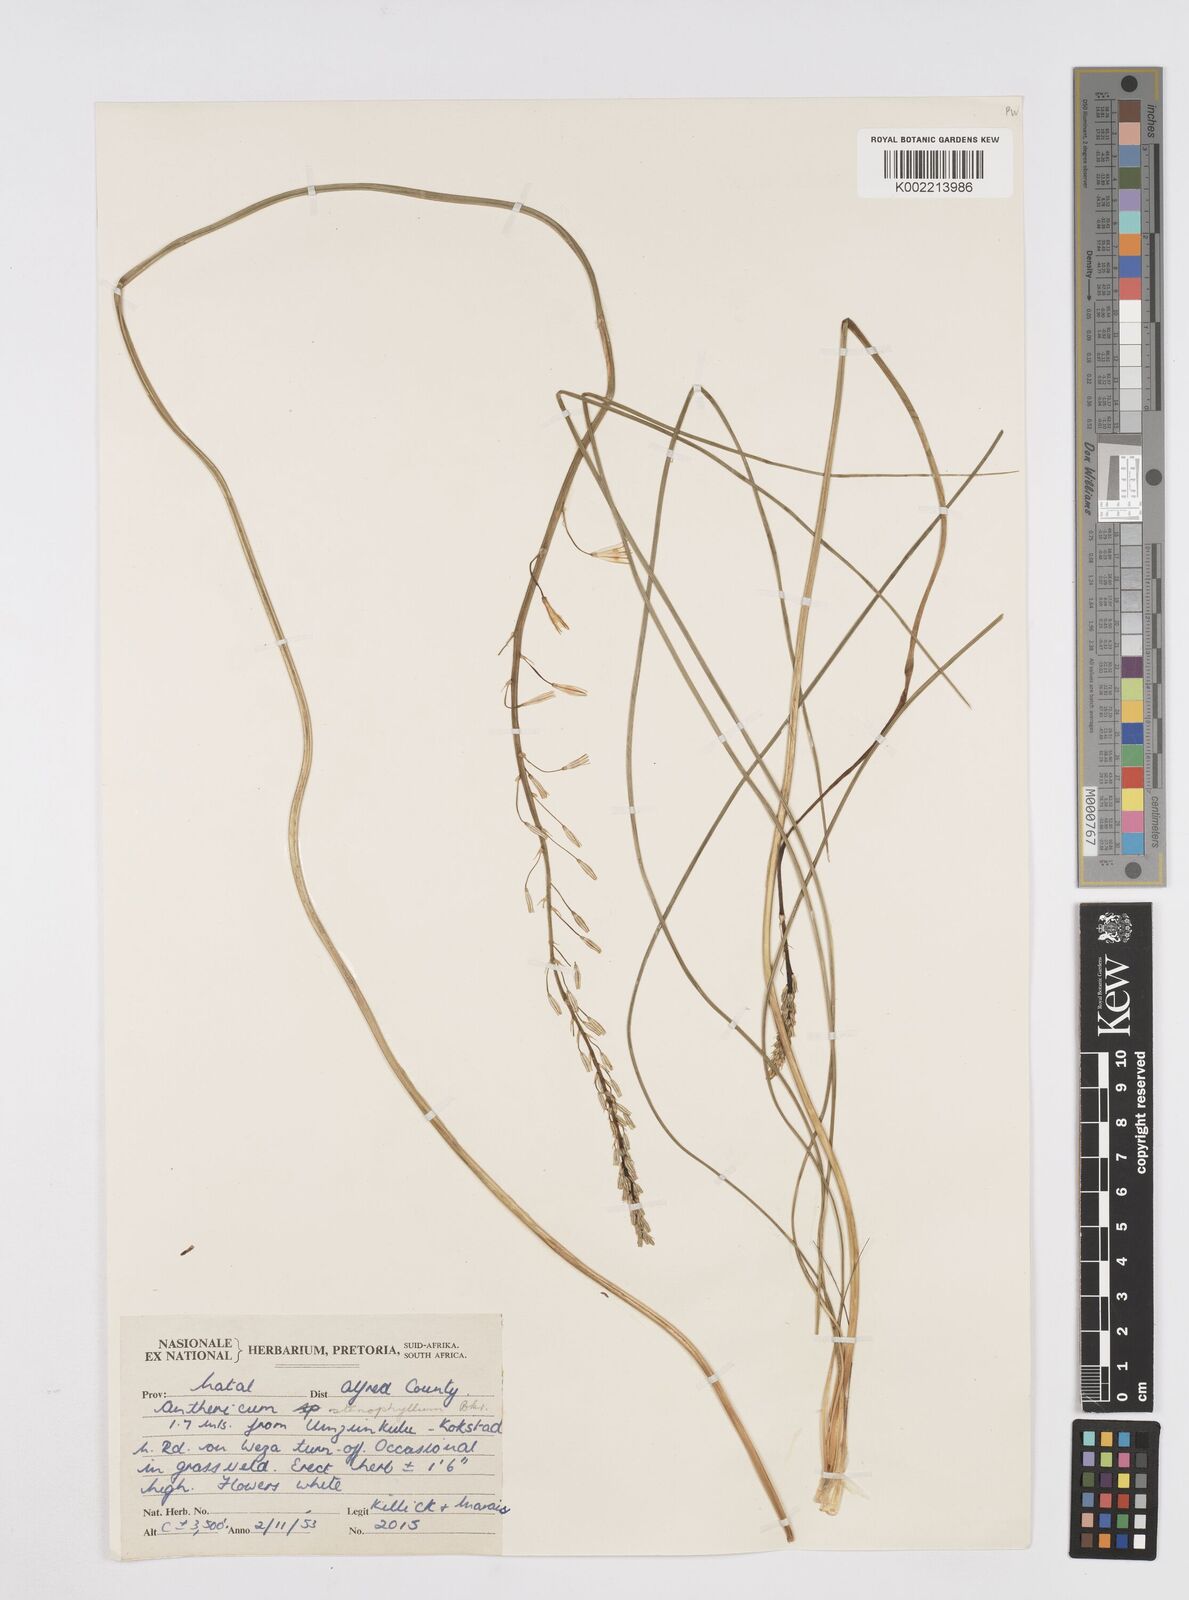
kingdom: Plantae
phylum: Tracheophyta
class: Liliopsida
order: Asparagales
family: Asphodelaceae
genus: Trachyandra
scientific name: Trachyandra
